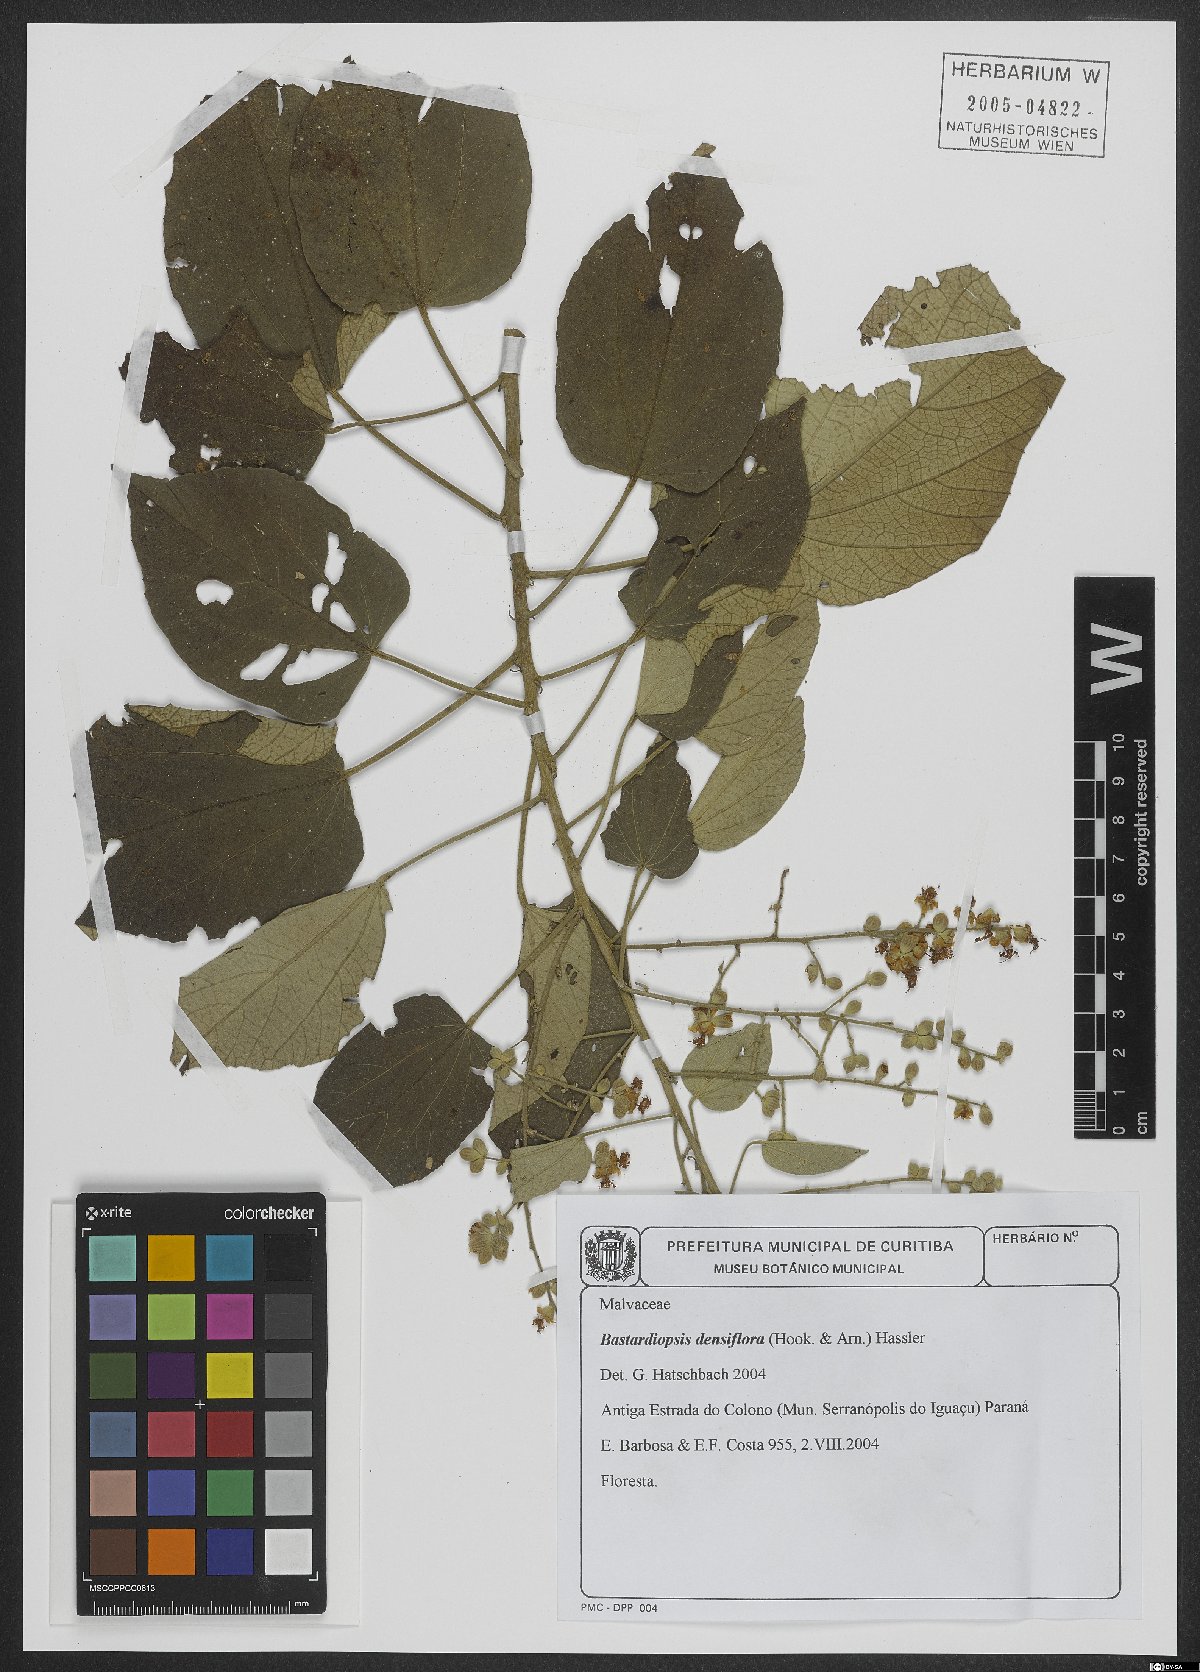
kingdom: Plantae
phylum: Tracheophyta
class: Magnoliopsida
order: Malvales
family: Malvaceae
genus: Bastardiopsis
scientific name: Bastardiopsis densiflora
